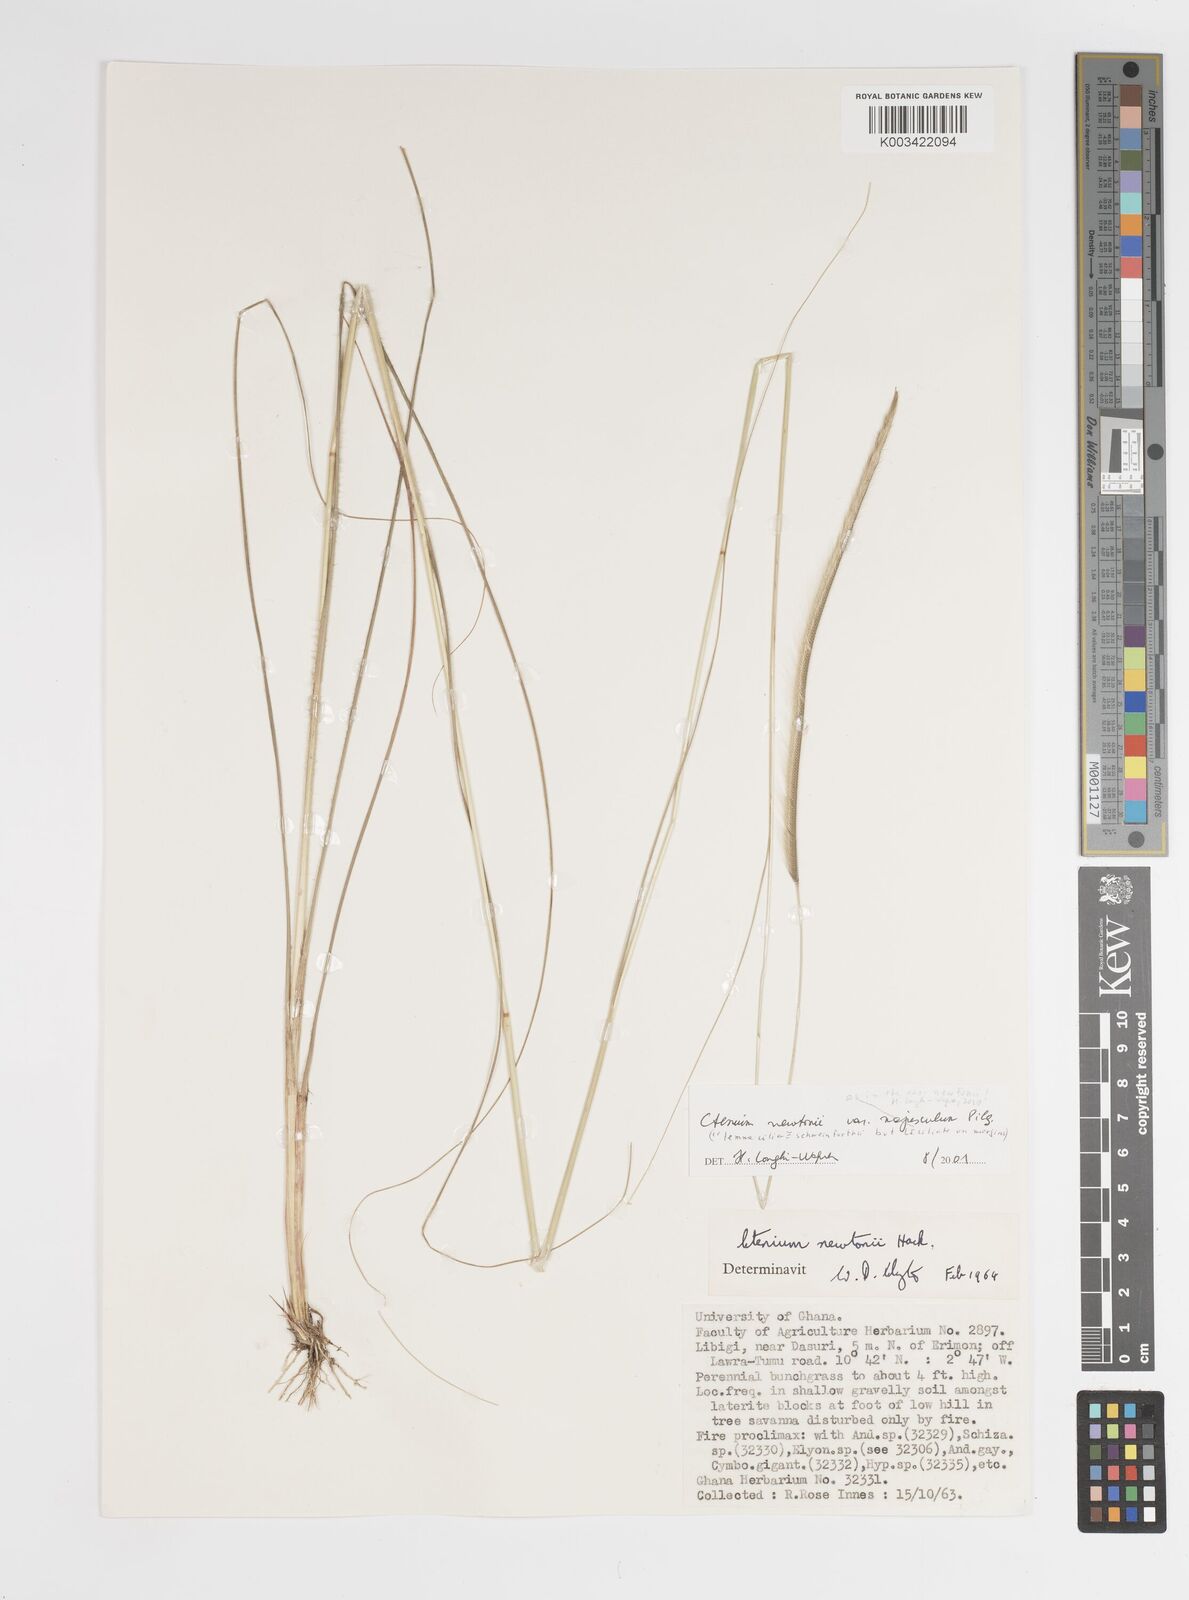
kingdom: Plantae
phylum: Tracheophyta
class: Liliopsida
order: Poales
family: Poaceae
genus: Ctenium
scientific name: Ctenium newtonii
